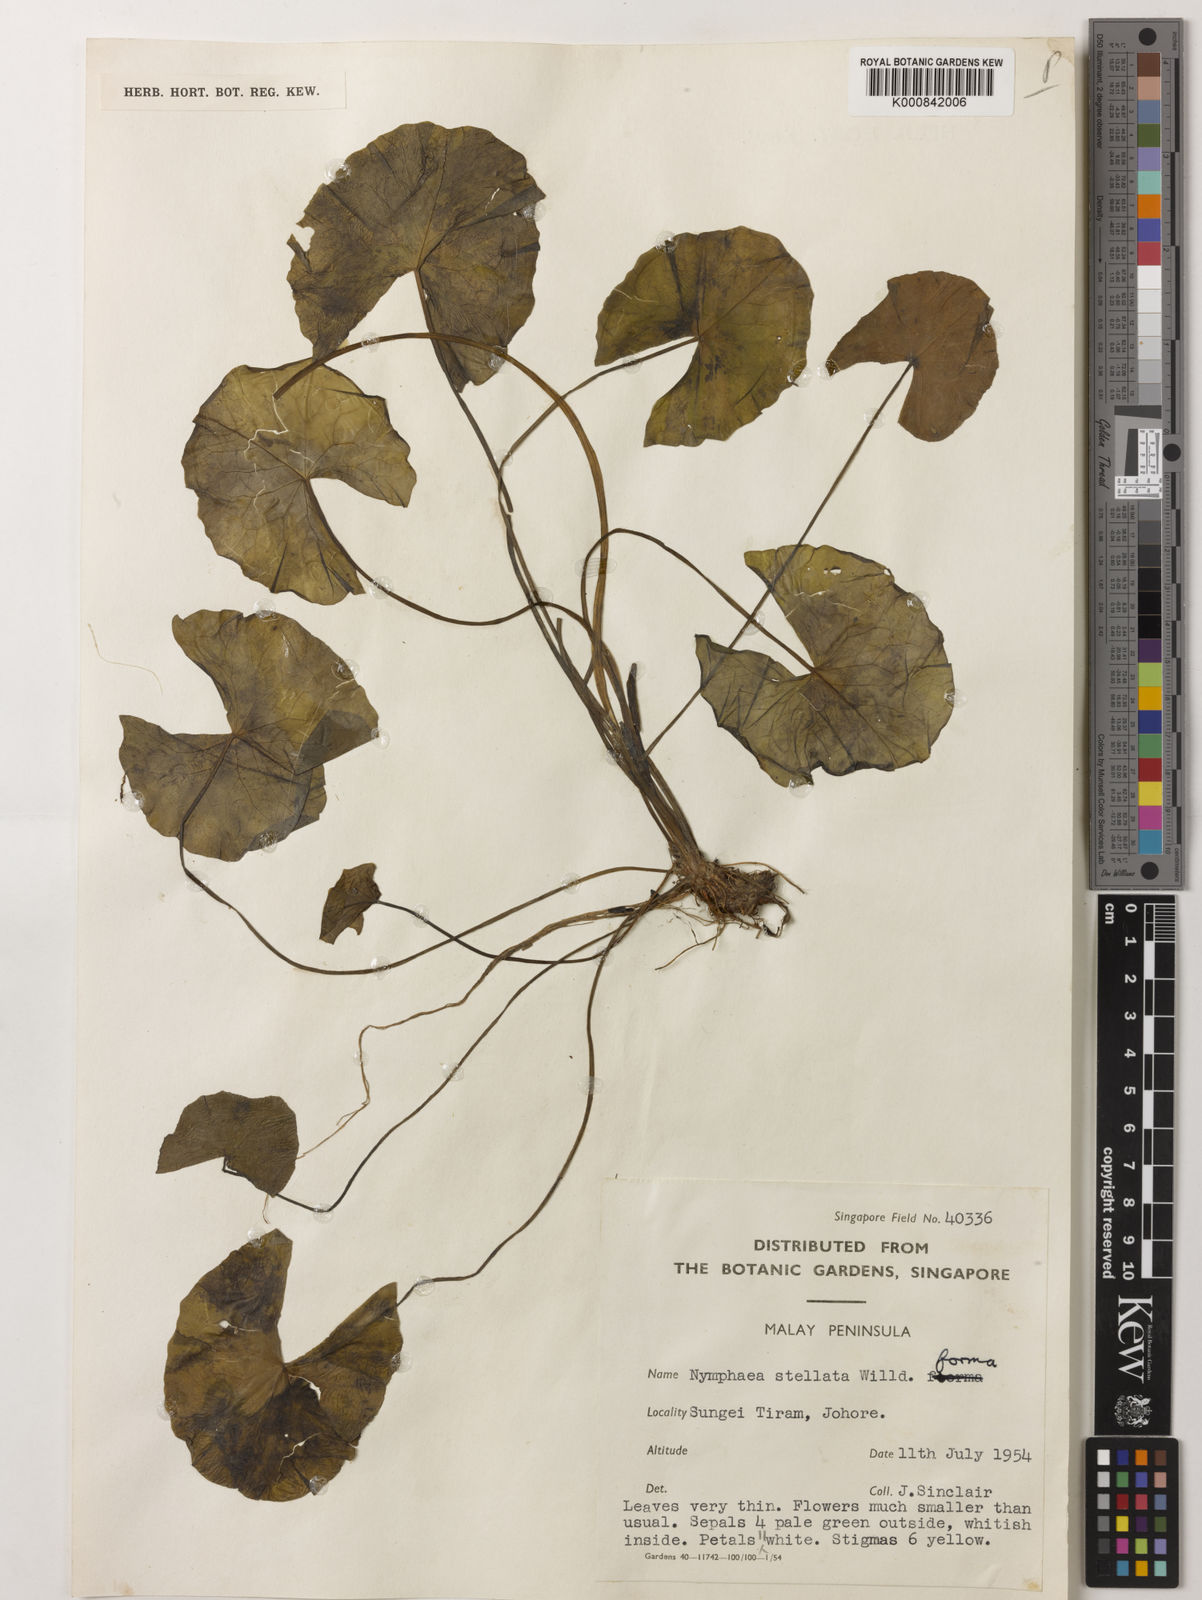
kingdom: Plantae
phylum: Tracheophyta
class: Magnoliopsida
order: Nymphaeales
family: Nymphaeaceae
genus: Nymphaea
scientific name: Nymphaea nouchali
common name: Blue lotus
